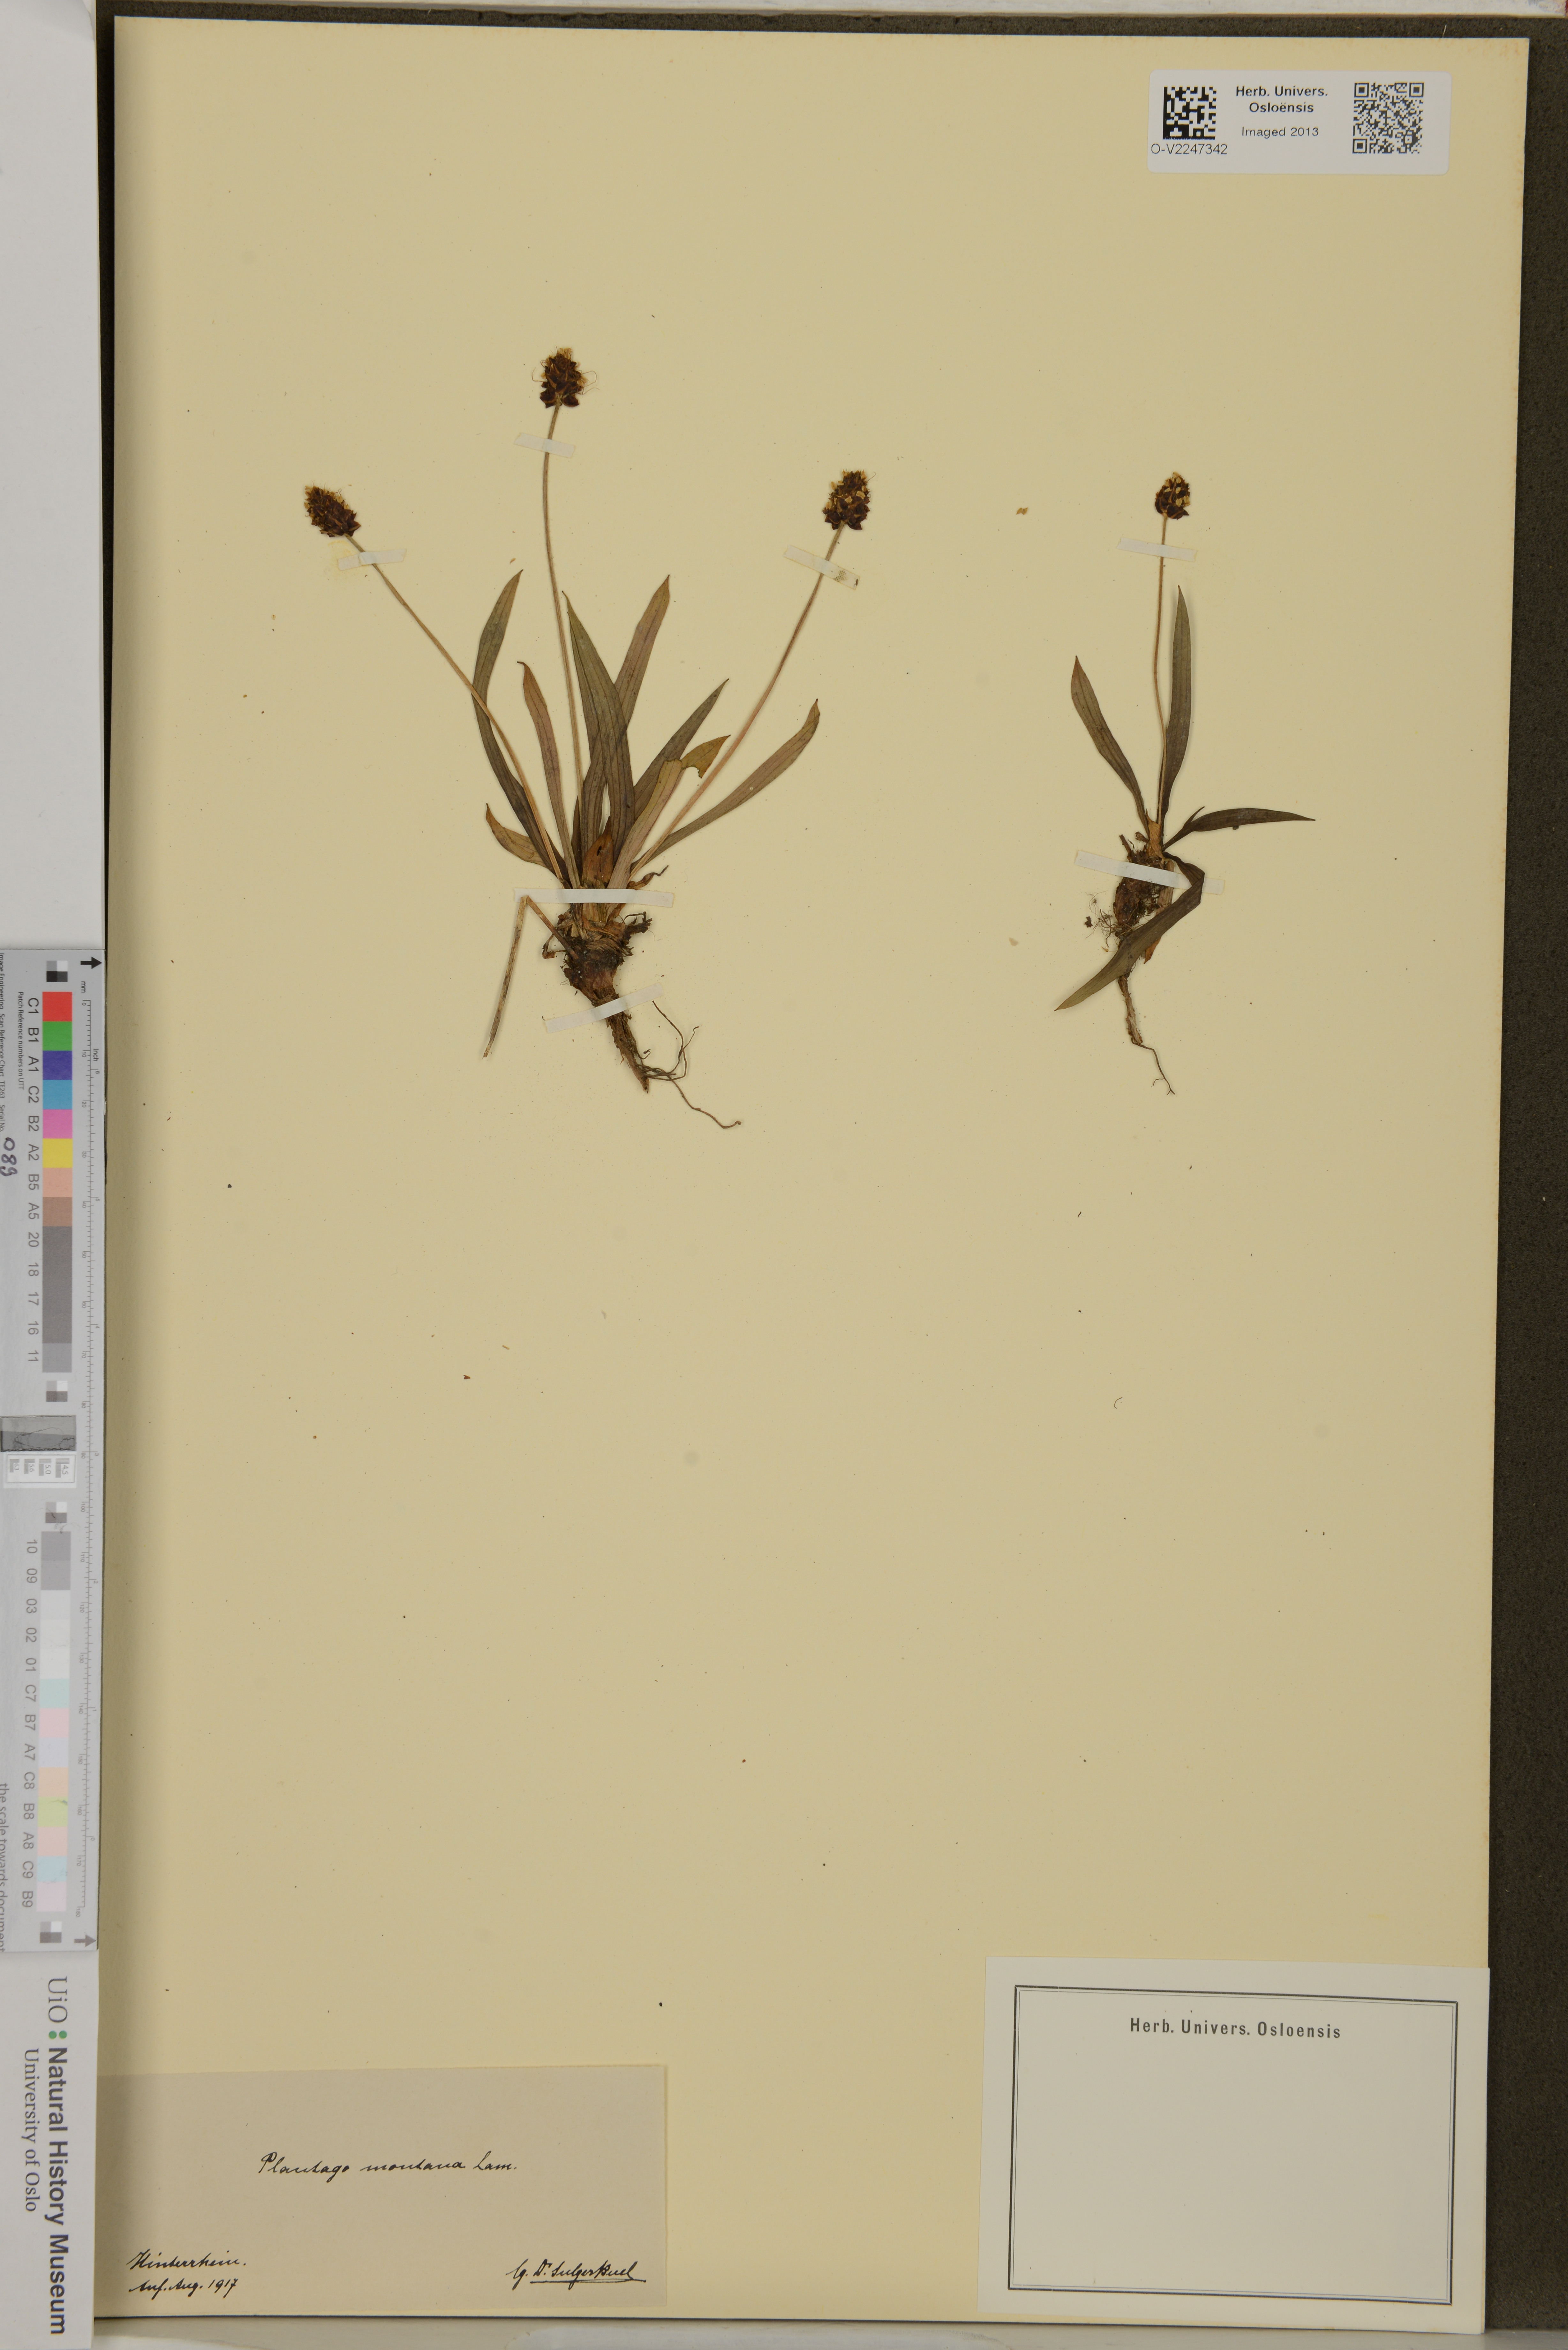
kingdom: Plantae
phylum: Tracheophyta
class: Magnoliopsida
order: Lamiales
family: Plantaginaceae
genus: Plantago
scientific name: Plantago
